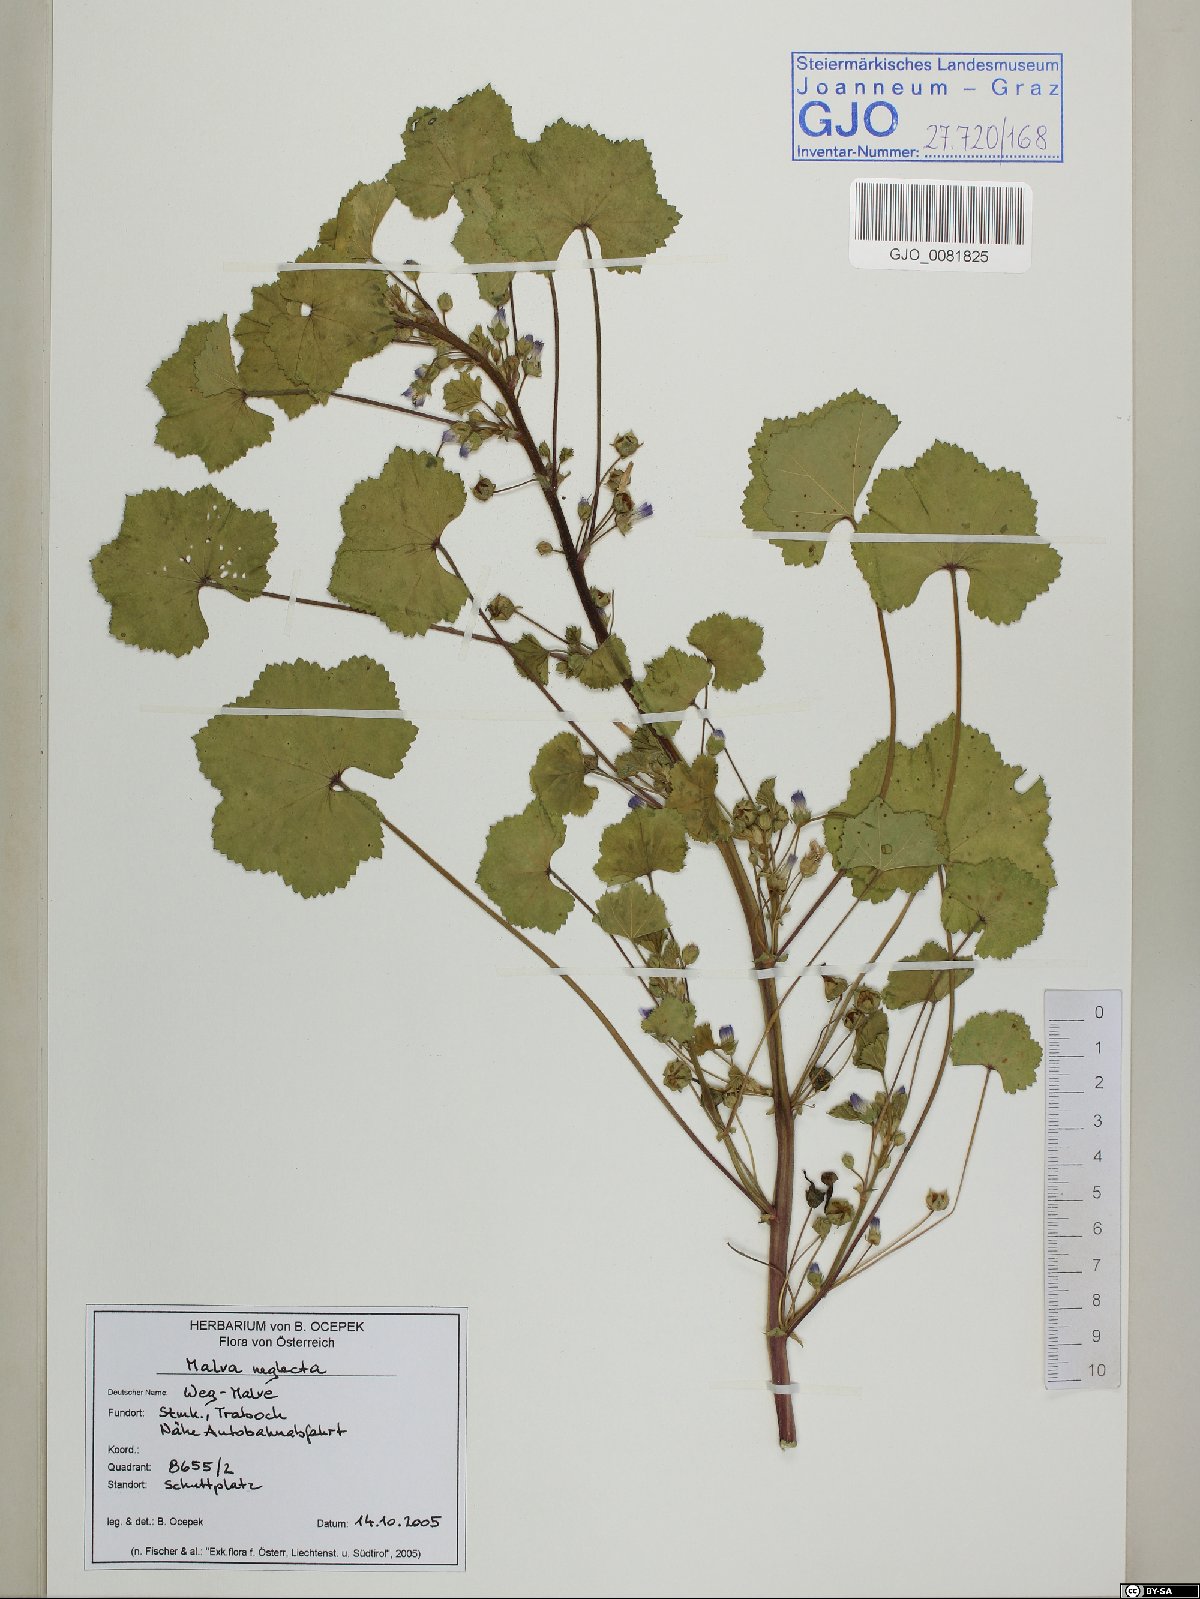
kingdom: Plantae
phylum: Tracheophyta
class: Magnoliopsida
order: Malvales
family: Malvaceae
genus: Malva
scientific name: Malva neglecta
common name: Common mallow
